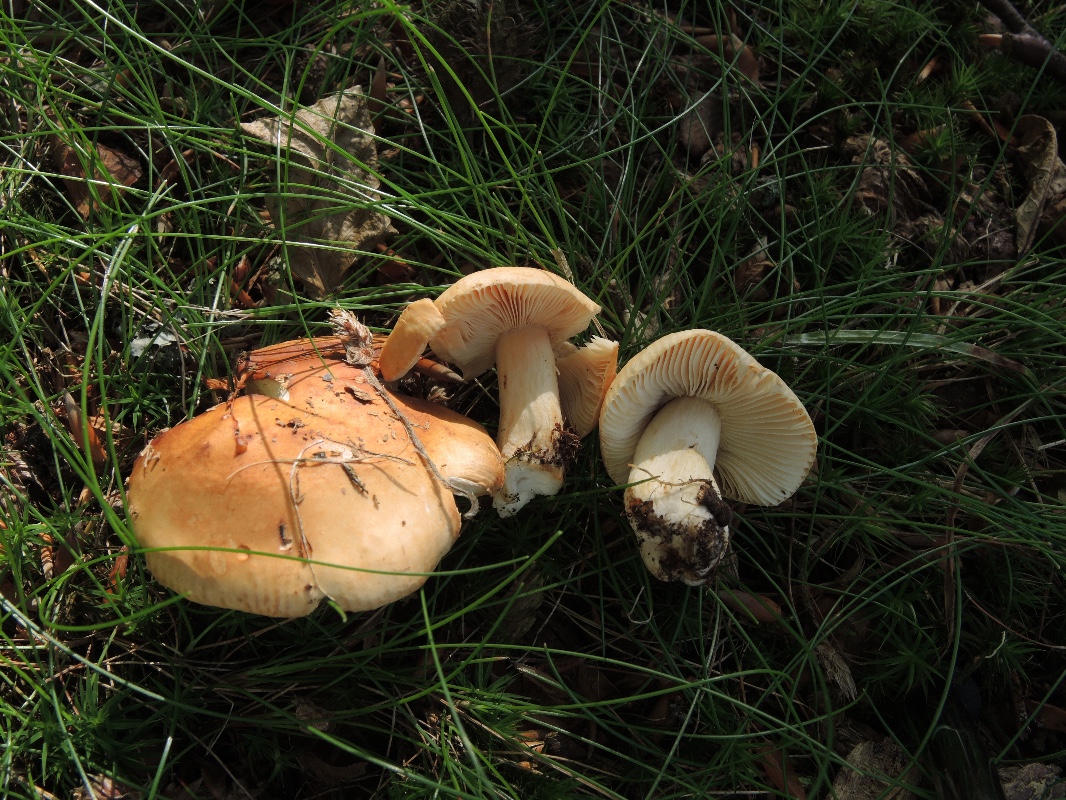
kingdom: Fungi
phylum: Basidiomycota
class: Agaricomycetes
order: Russulales
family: Russulaceae
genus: Russula
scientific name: Russula fellea
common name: galde-skørhat
